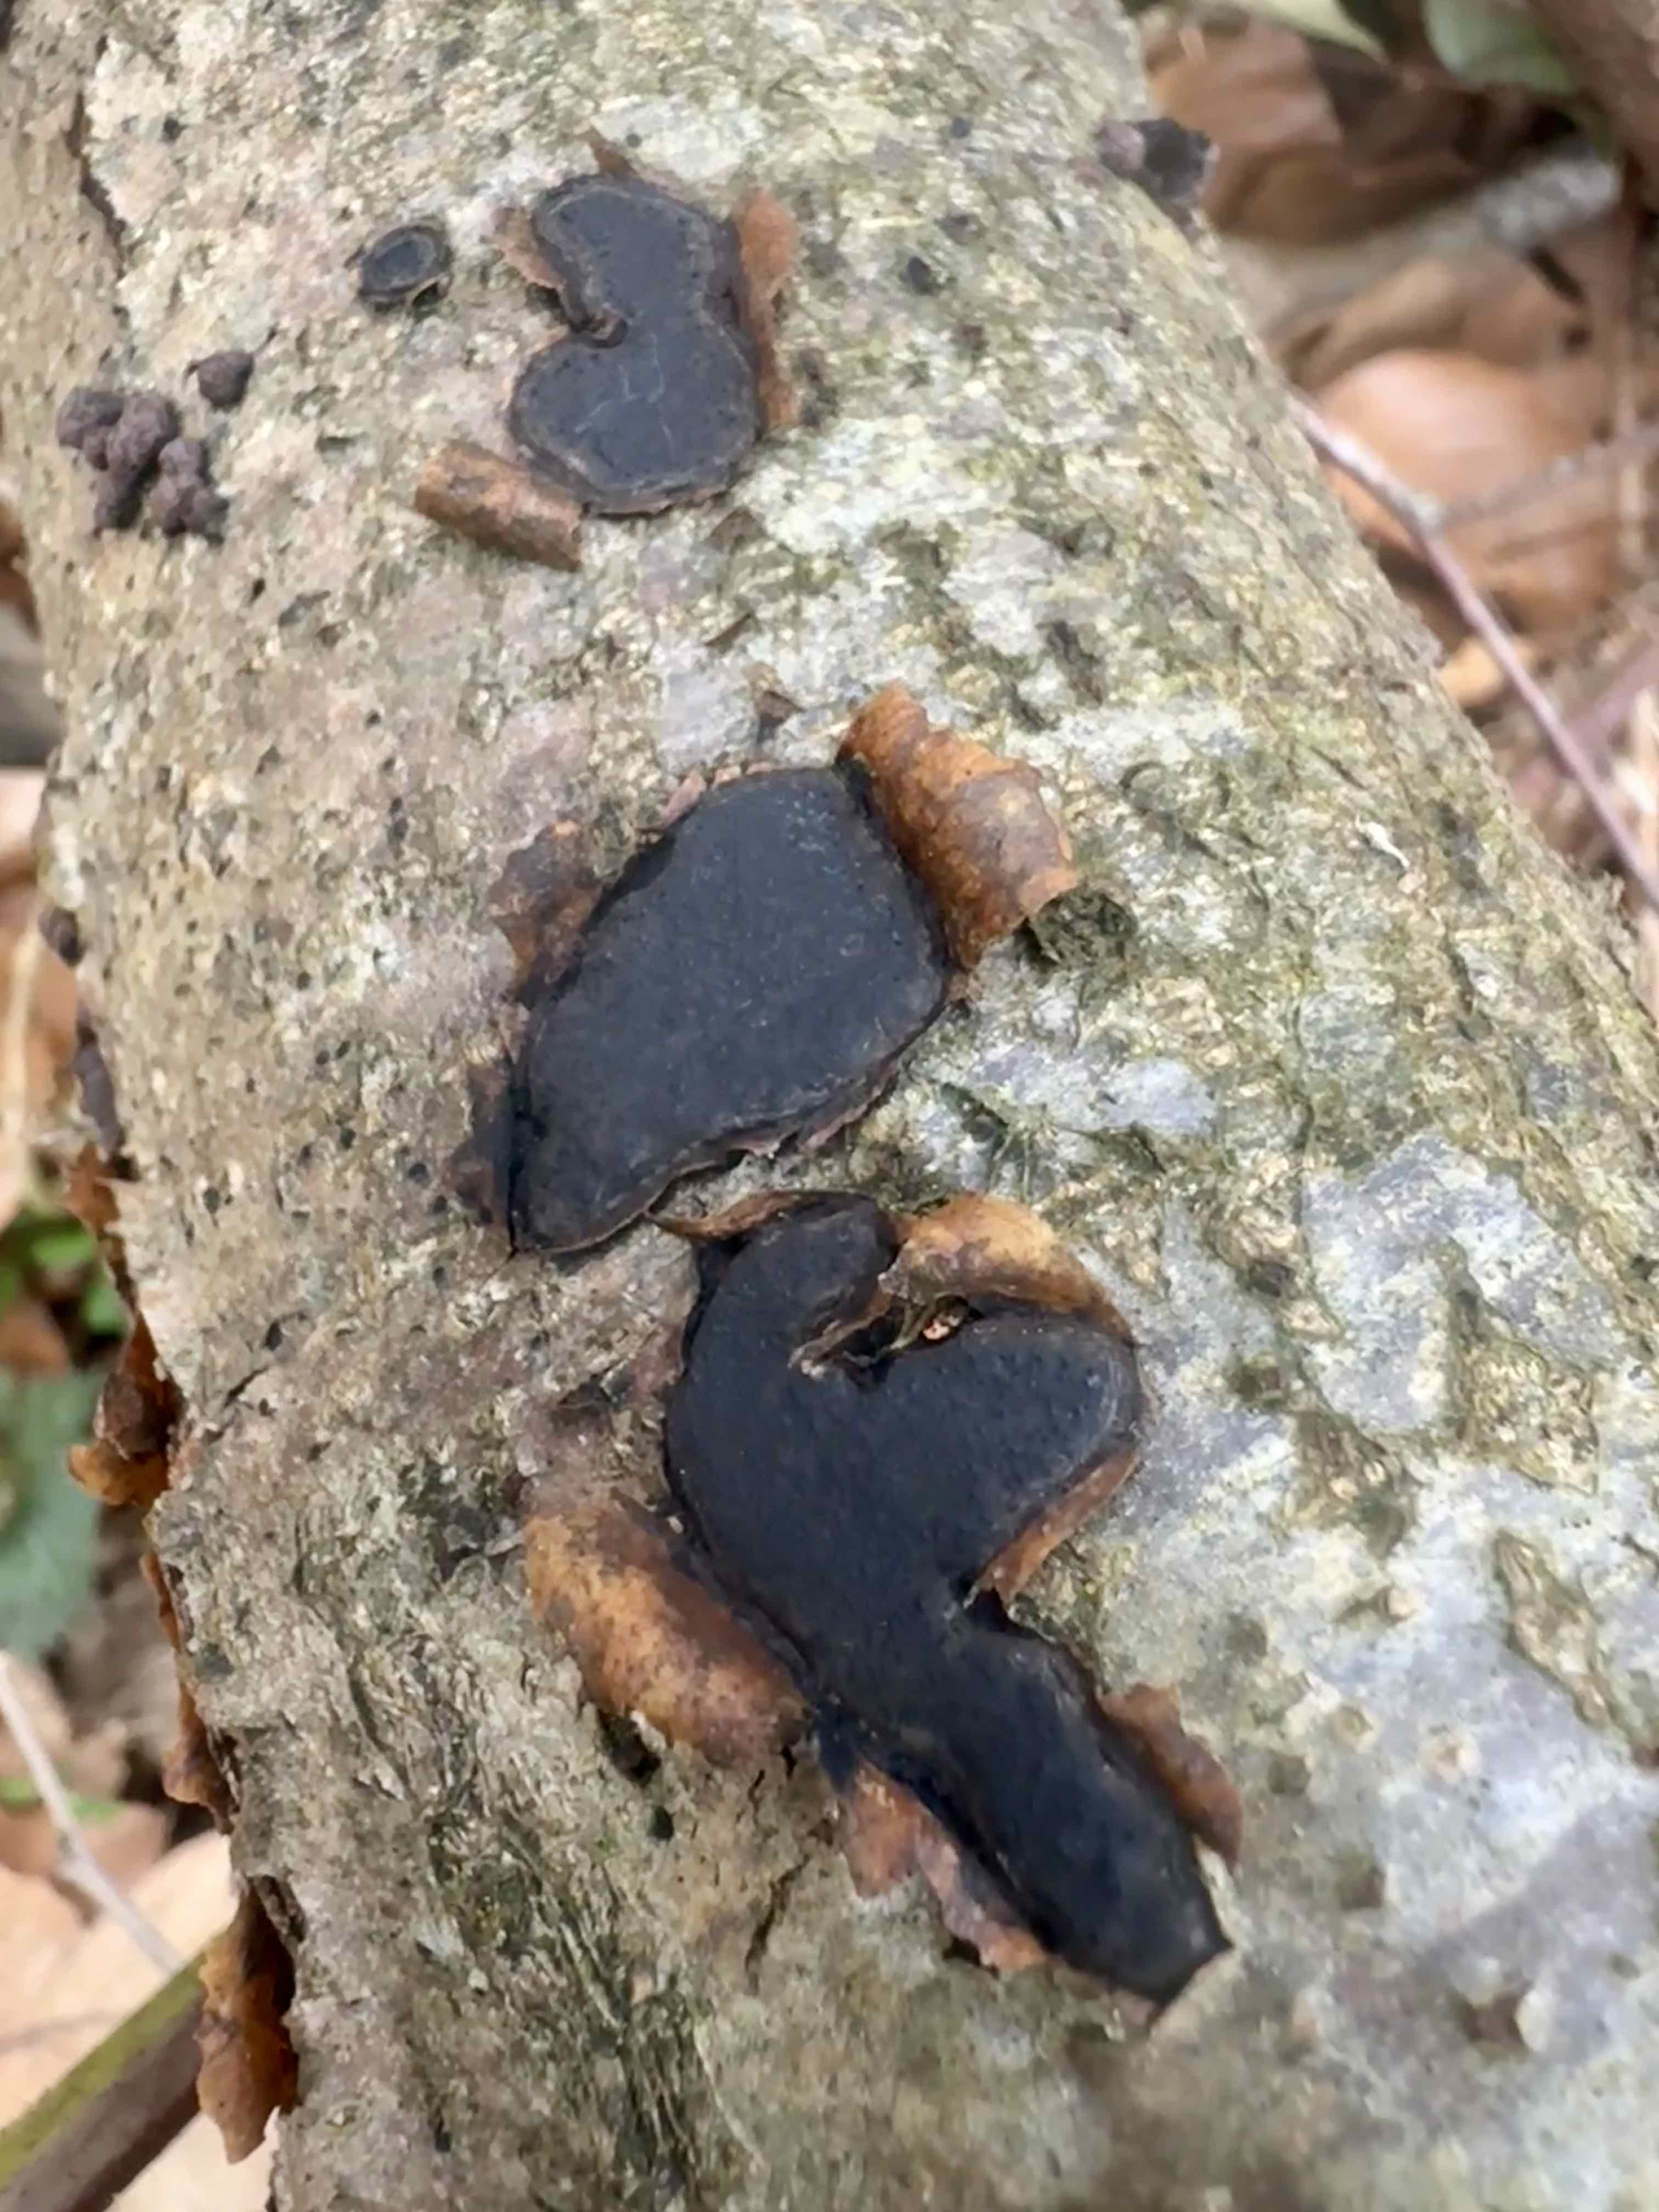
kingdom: Fungi
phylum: Ascomycota
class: Sordariomycetes
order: Xylariales
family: Graphostromataceae
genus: Biscogniauxia
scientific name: Biscogniauxia nummularia
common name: bøge-kulskive
